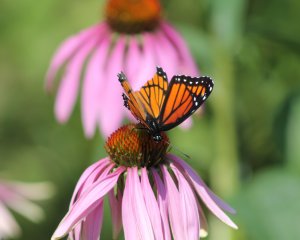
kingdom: Animalia
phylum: Arthropoda
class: Insecta
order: Lepidoptera
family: Nymphalidae
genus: Limenitis
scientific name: Limenitis archippus
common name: Viceroy
